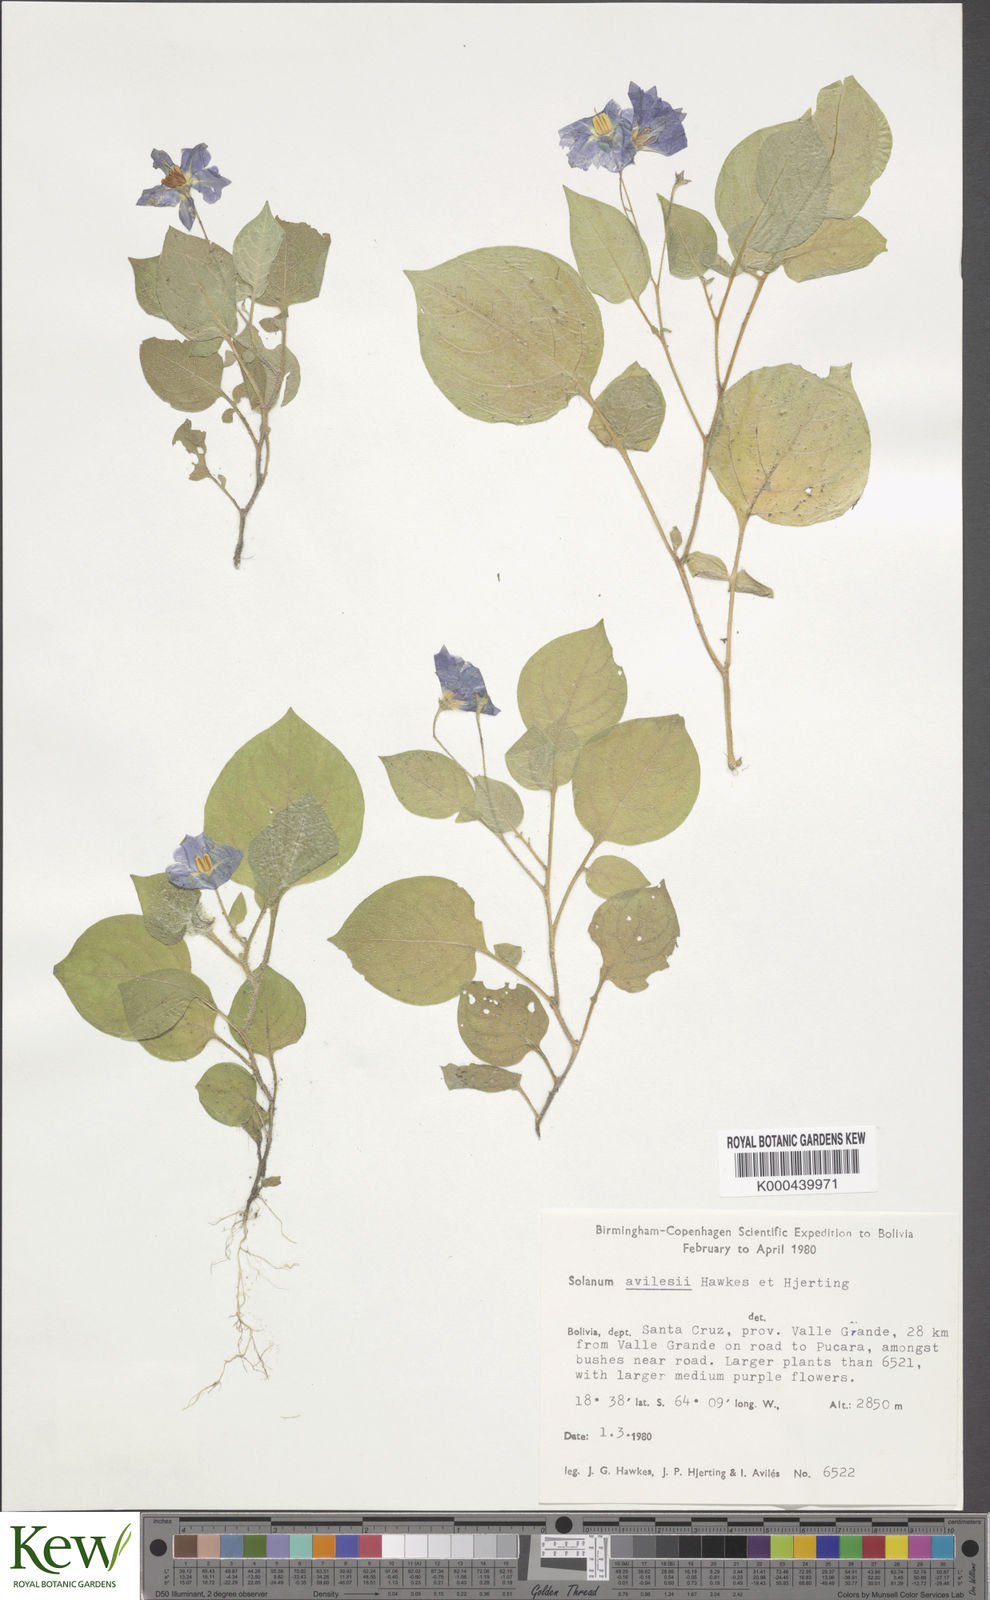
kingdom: Plantae
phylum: Tracheophyta
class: Magnoliopsida
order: Solanales
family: Solanaceae
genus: Solanum
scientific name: Solanum brevicaule
